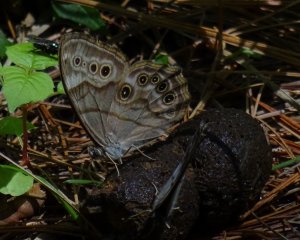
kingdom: Animalia
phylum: Arthropoda
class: Insecta
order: Lepidoptera
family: Nymphalidae
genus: Lethe
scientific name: Lethe anthedon
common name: Northern Pearly-Eye
